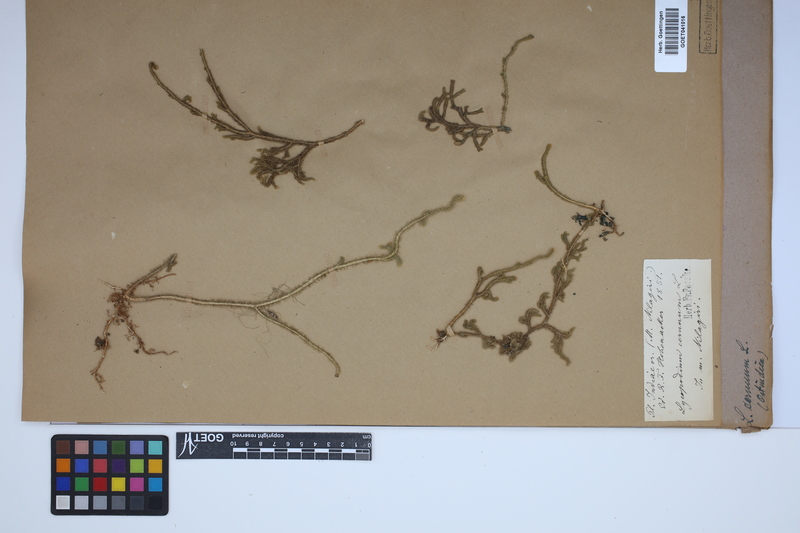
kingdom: Plantae
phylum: Tracheophyta
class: Lycopodiopsida
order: Lycopodiales
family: Lycopodiaceae
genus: Palhinhaea
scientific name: Palhinhaea cernua
